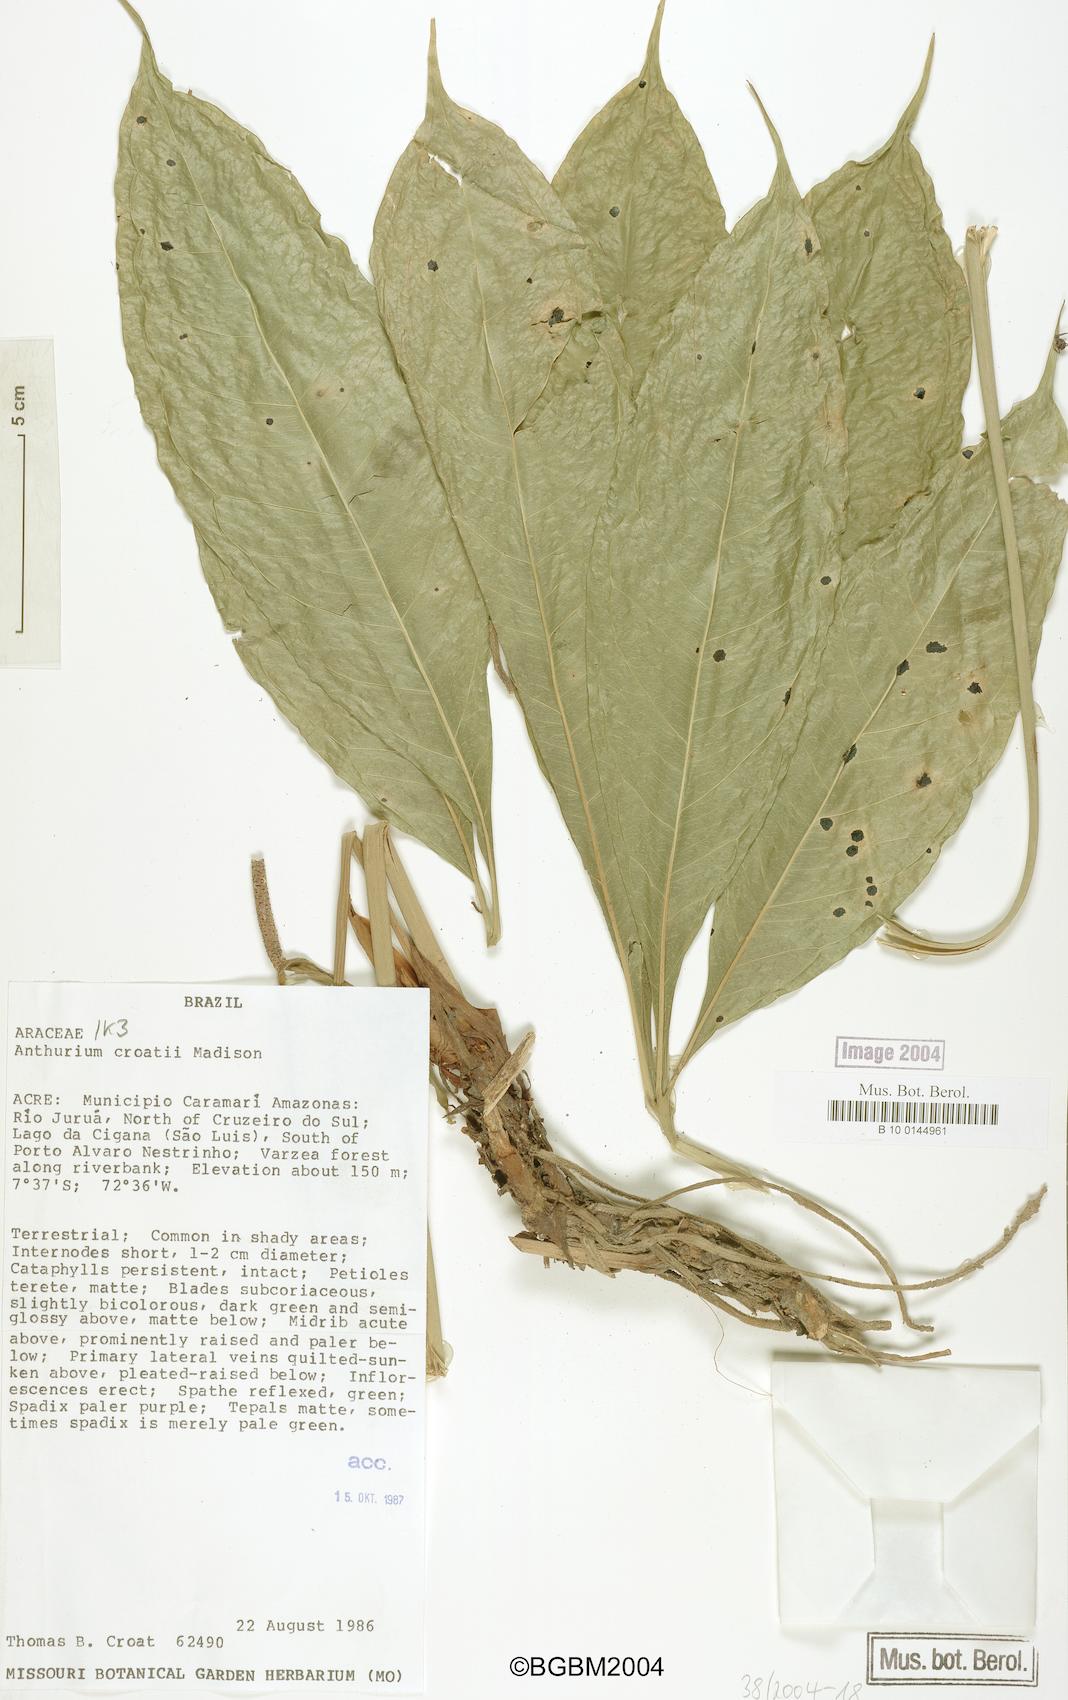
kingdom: Plantae
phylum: Tracheophyta
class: Liliopsida
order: Alismatales
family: Araceae
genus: Anthurium
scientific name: Anthurium croatii
